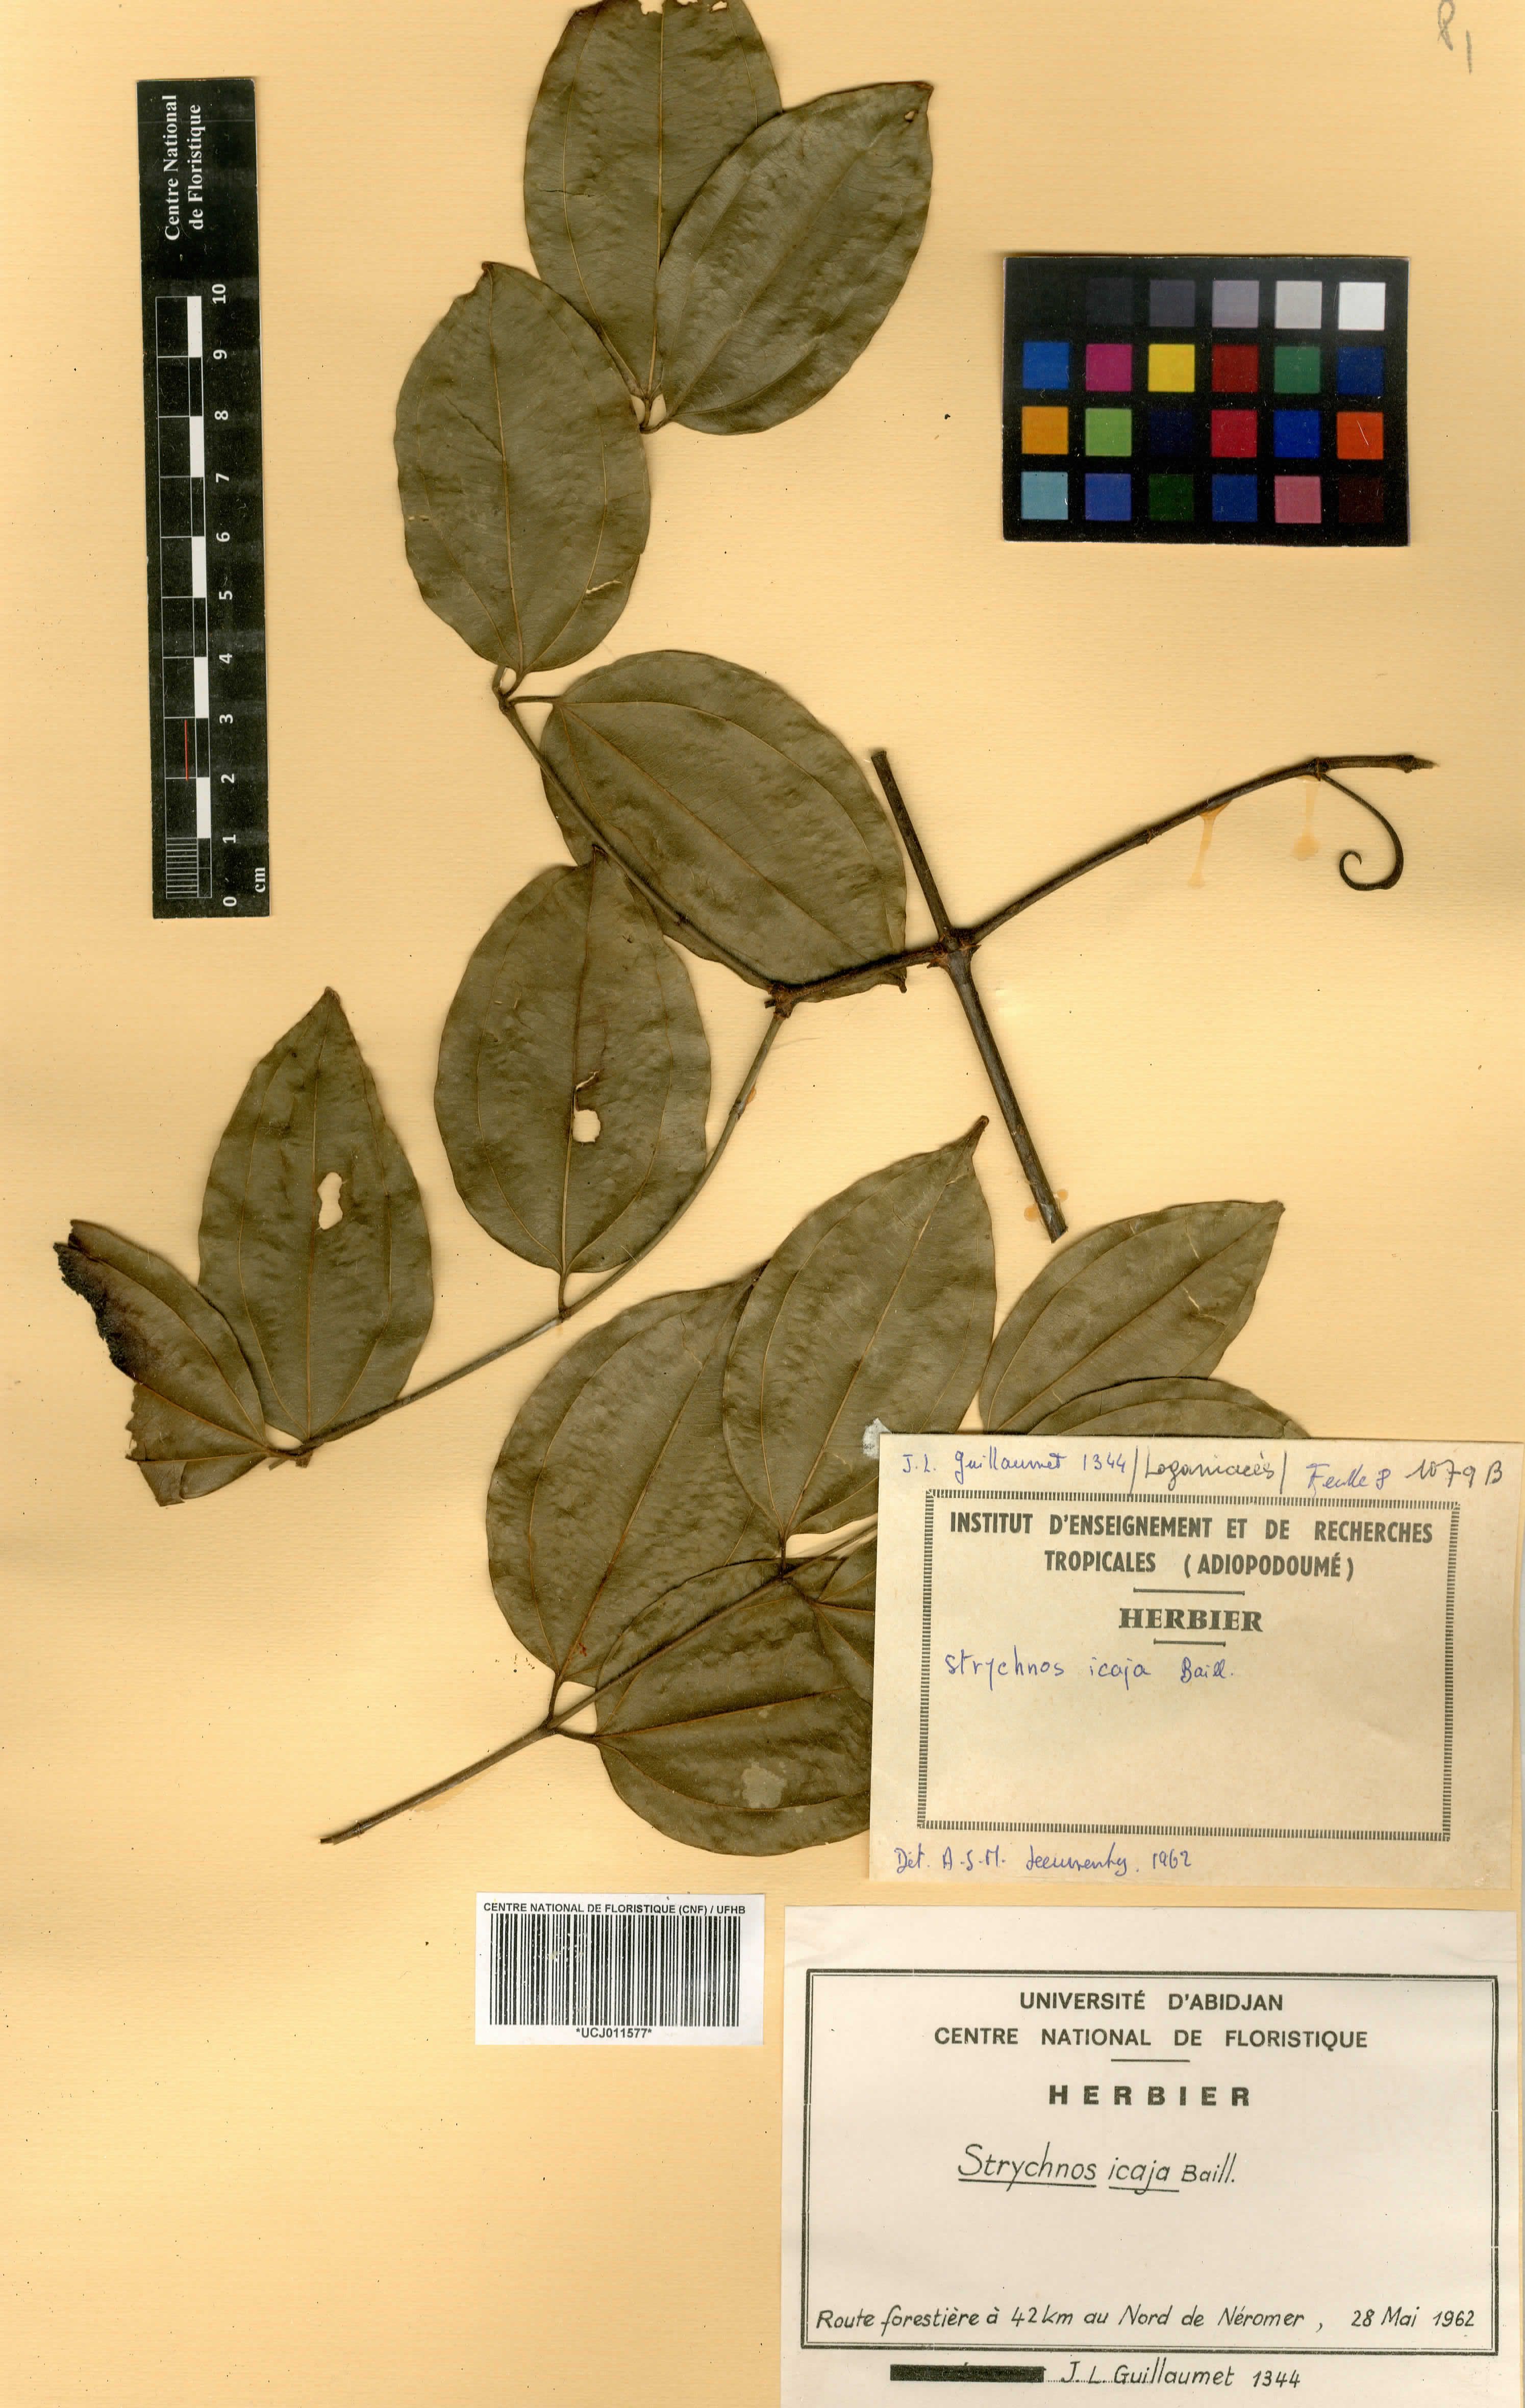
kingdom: Plantae
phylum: Tracheophyta
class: Magnoliopsida
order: Gentianales
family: Loganiaceae
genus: Strychnos
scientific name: Strychnos icaja
